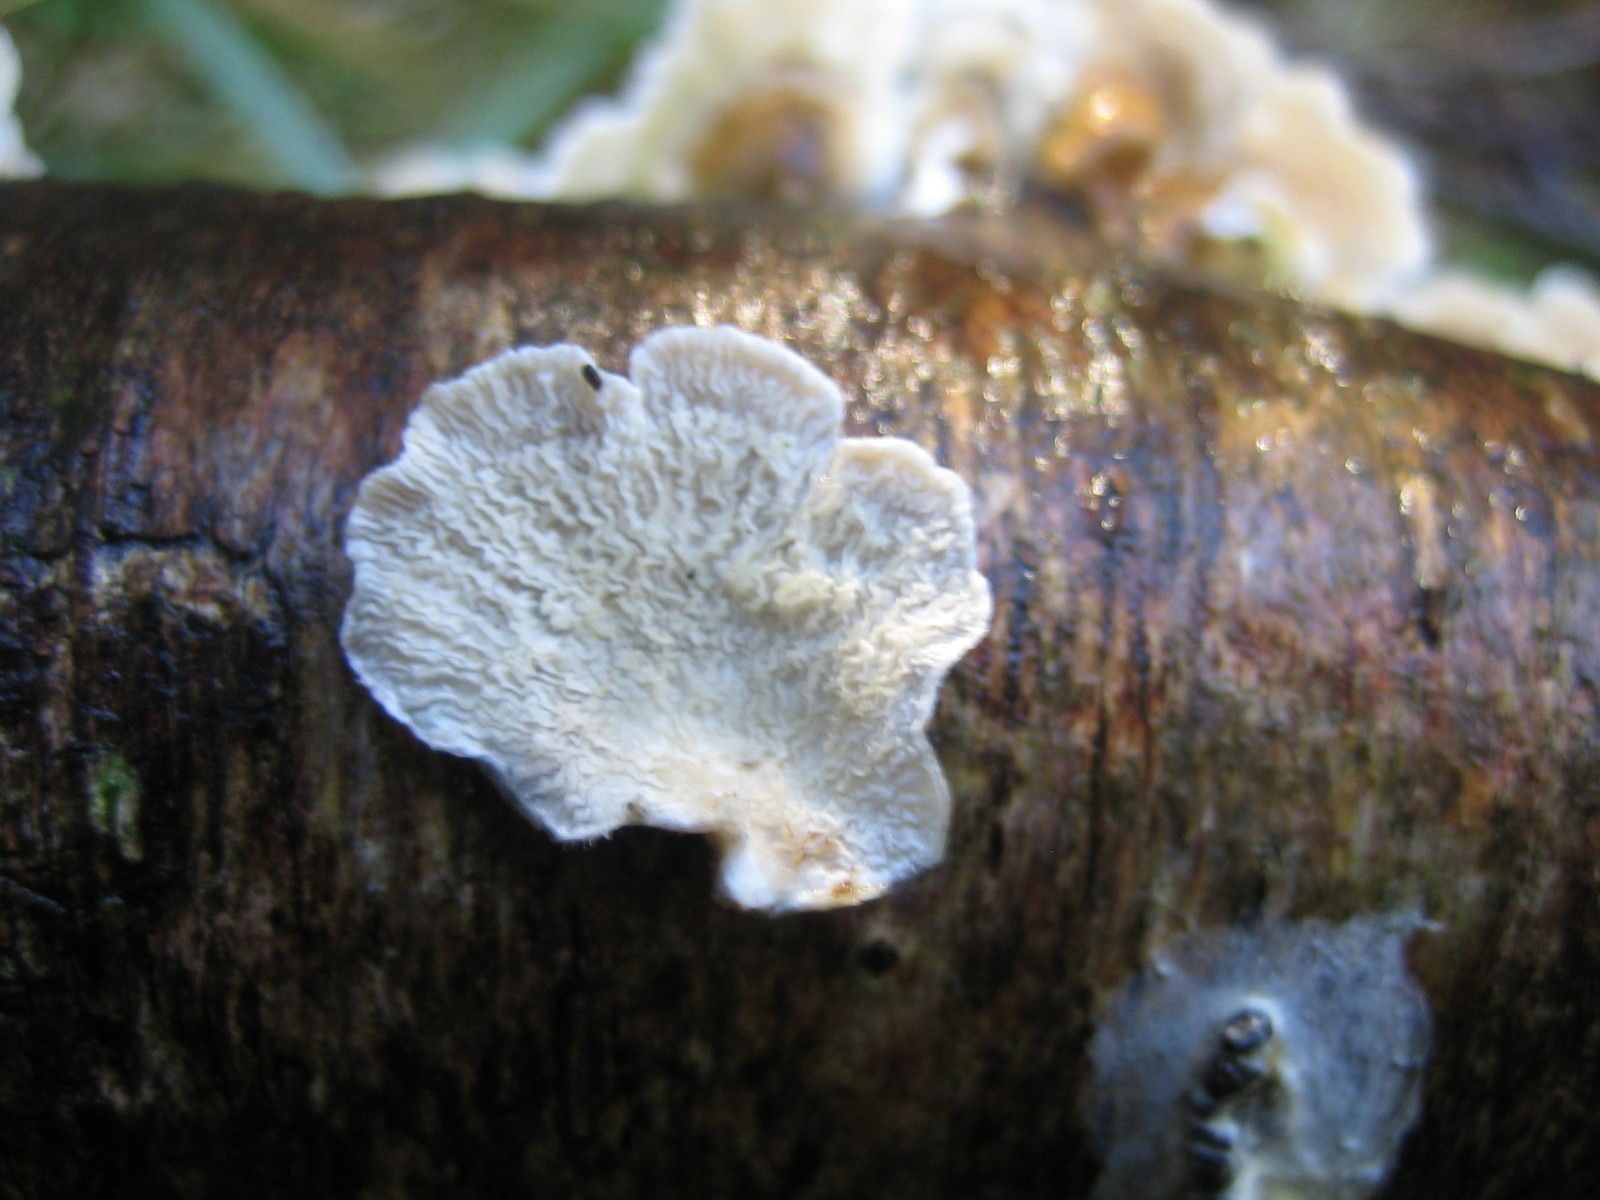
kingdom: Fungi
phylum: Basidiomycota
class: Agaricomycetes
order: Amylocorticiales
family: Amylocorticiaceae
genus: Plicaturopsis
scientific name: Plicaturopsis crispa
